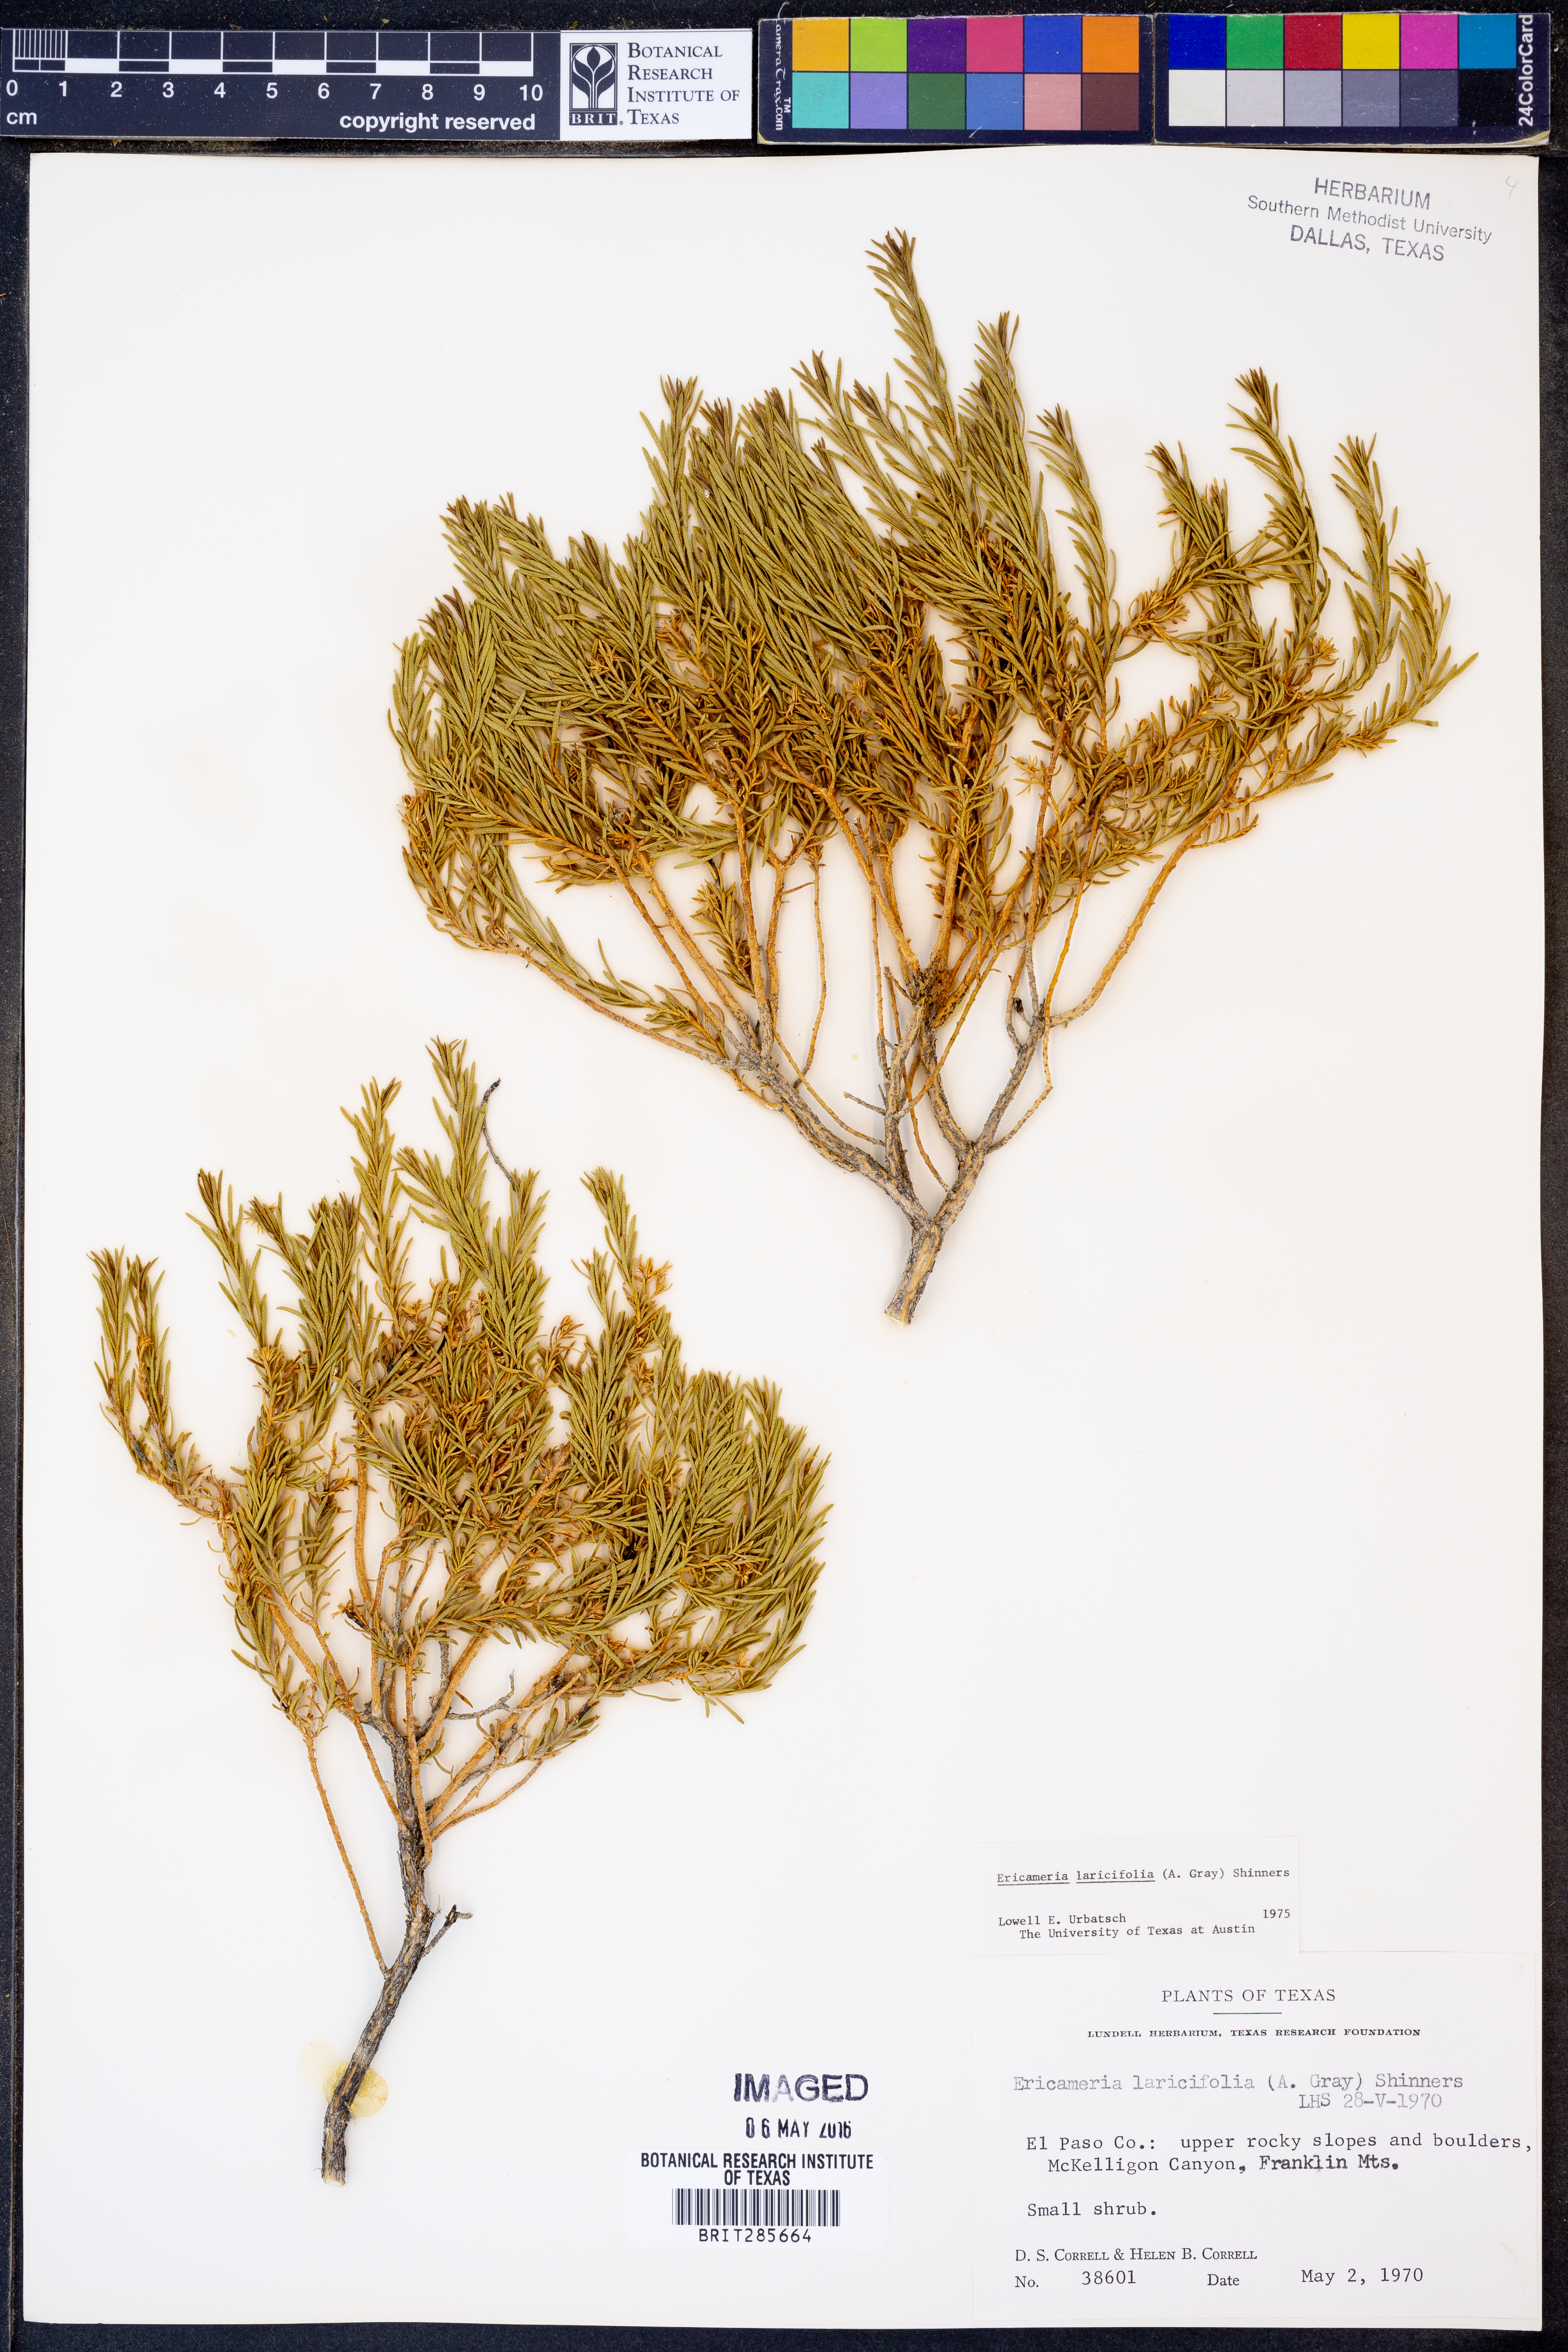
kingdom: Plantae
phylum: Tracheophyta
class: Magnoliopsida
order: Asterales
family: Asteraceae
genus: Ericameria
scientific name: Ericameria laricifolia
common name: Turpentine-bush
